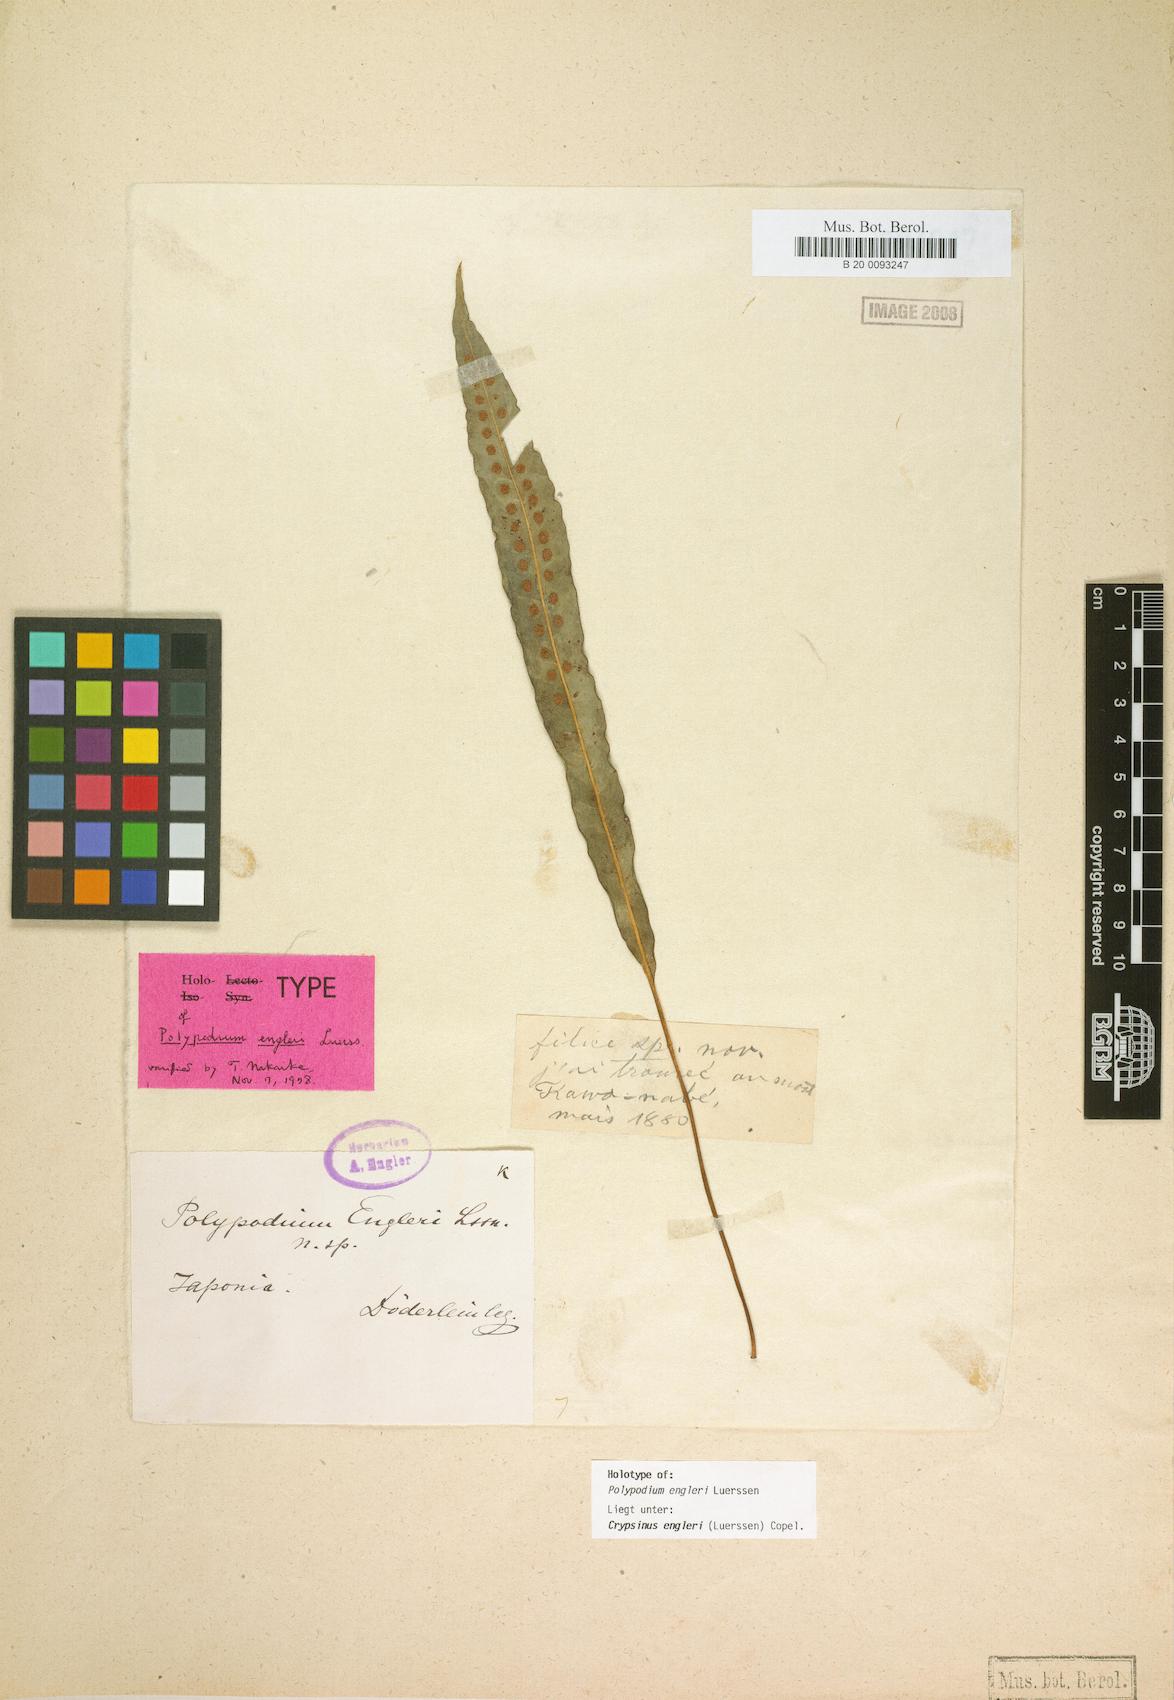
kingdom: Plantae
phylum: Tracheophyta
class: Polypodiopsida
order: Polypodiales
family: Polypodiaceae
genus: Selliguea
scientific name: Selliguea engleri
